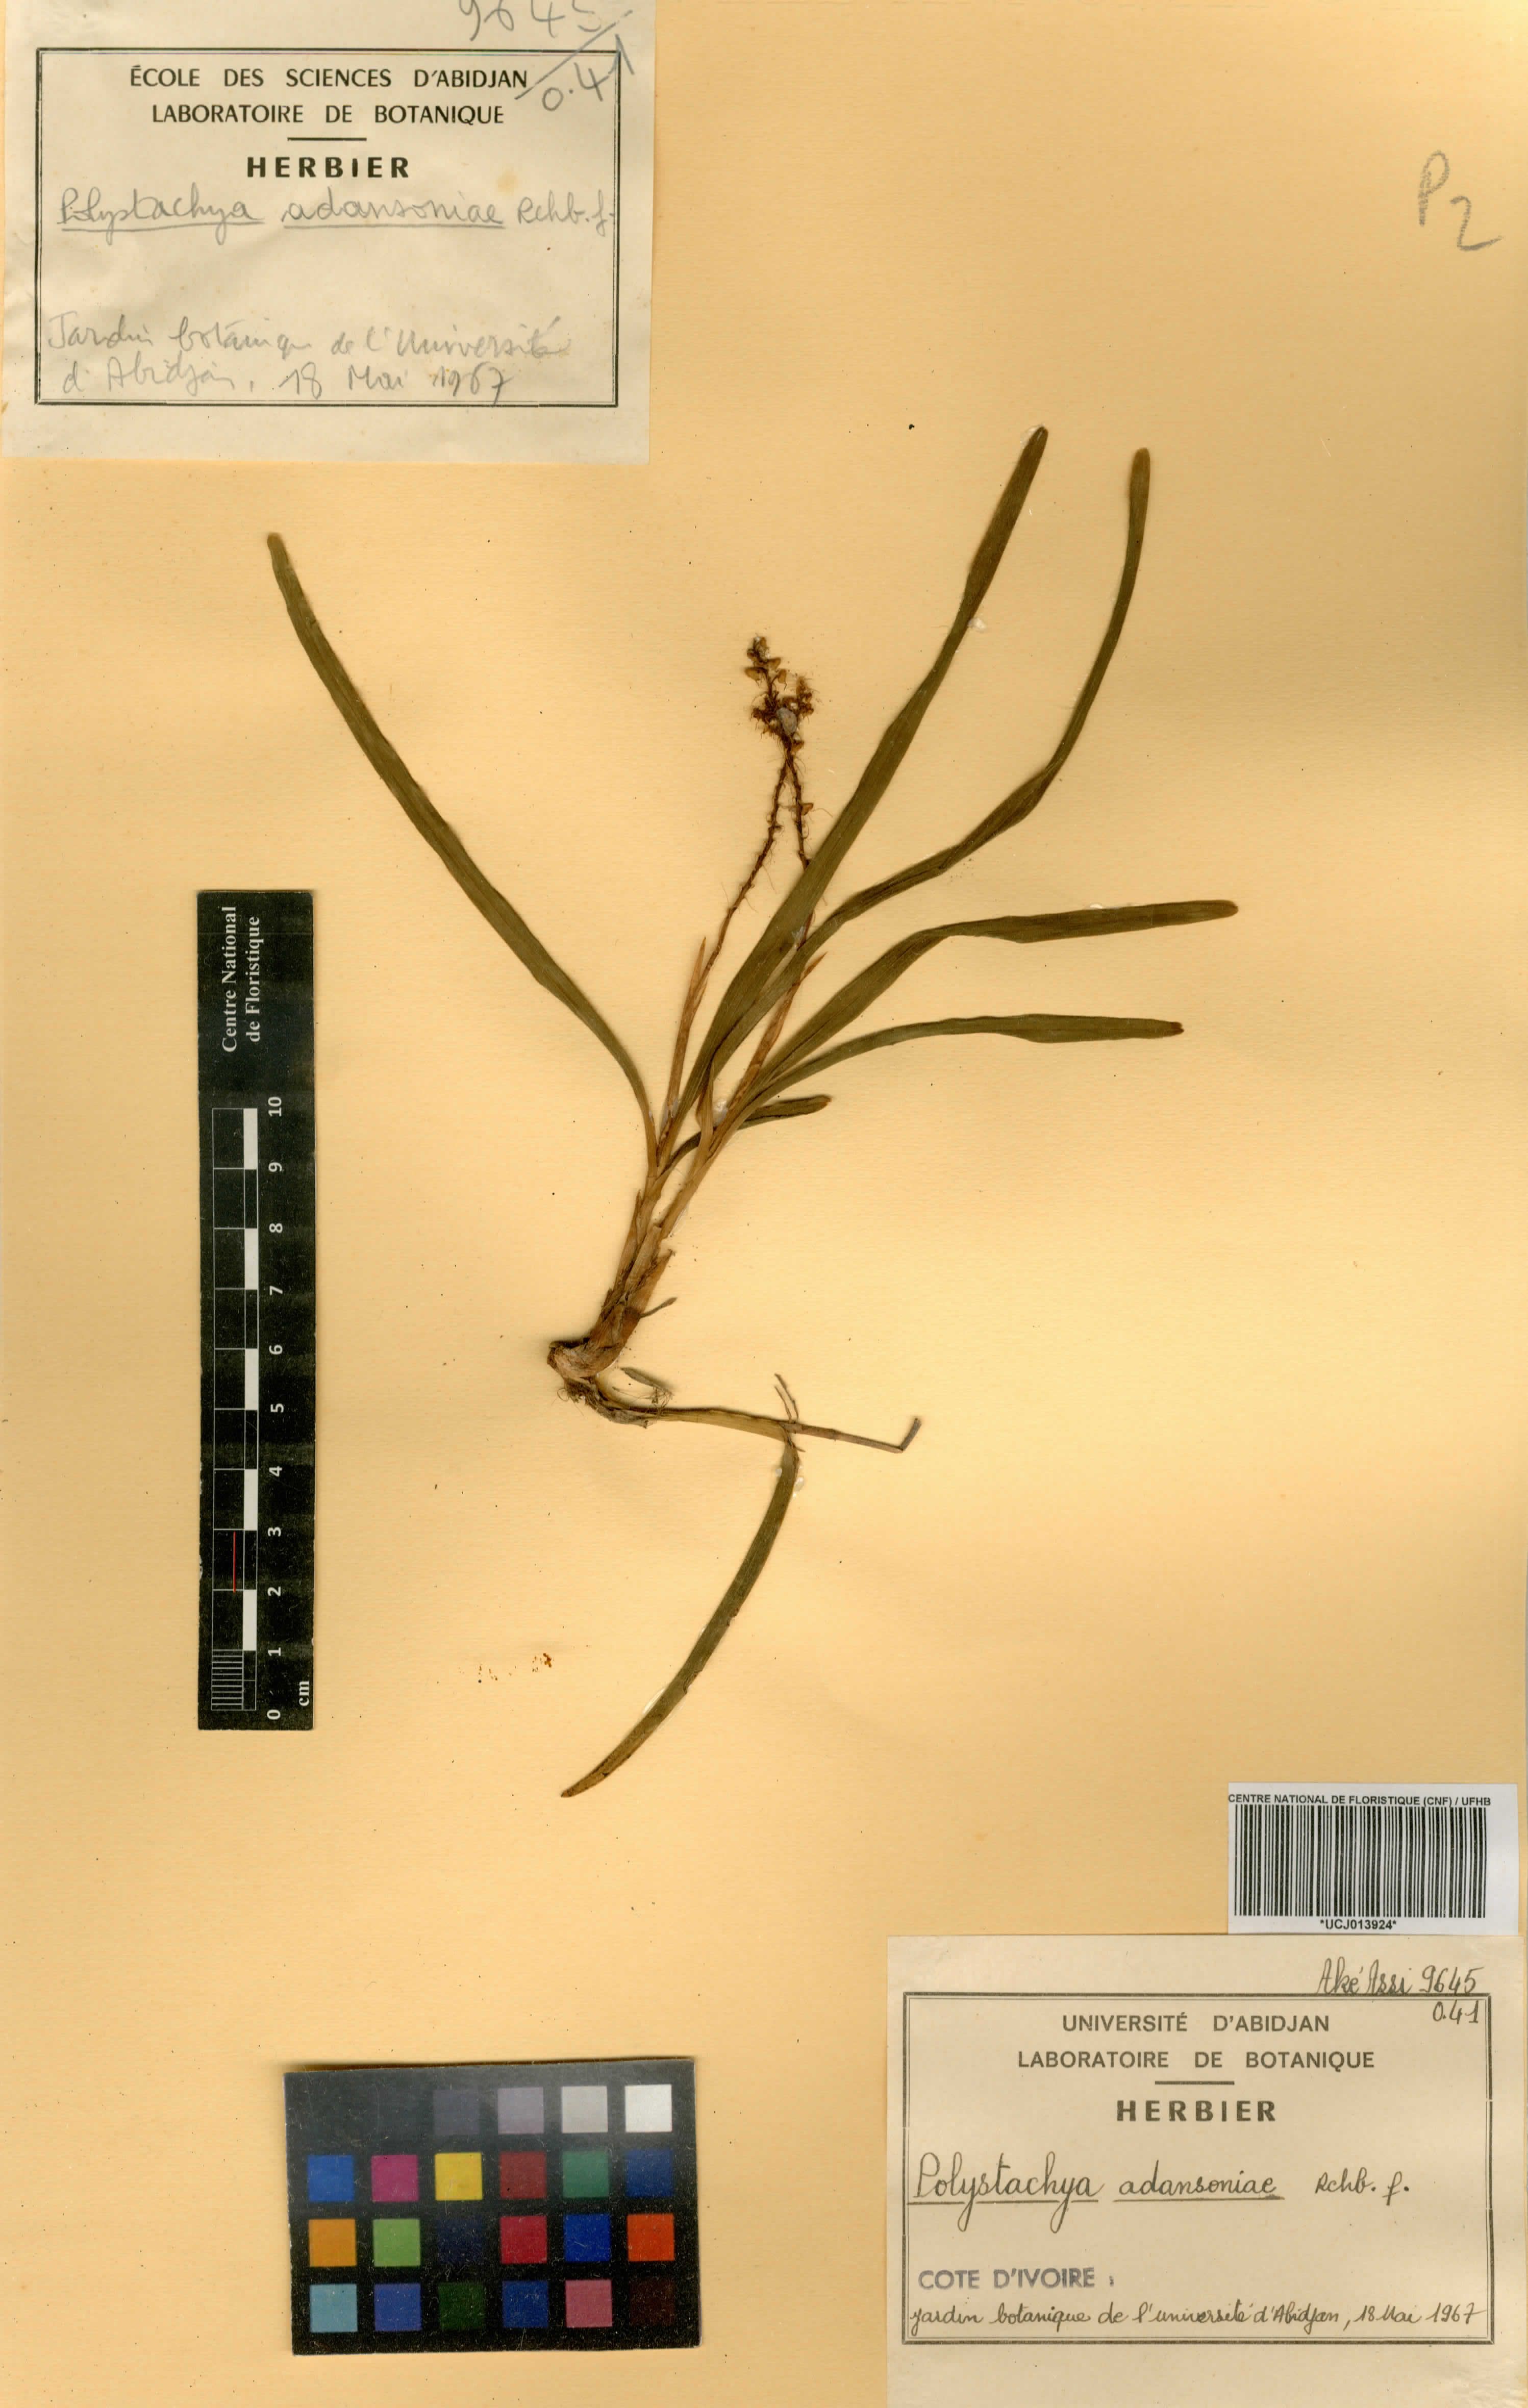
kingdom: Plantae
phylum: Tracheophyta
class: Liliopsida
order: Asparagales
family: Orchidaceae
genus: Polystachya
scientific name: Polystachya adansoniae
